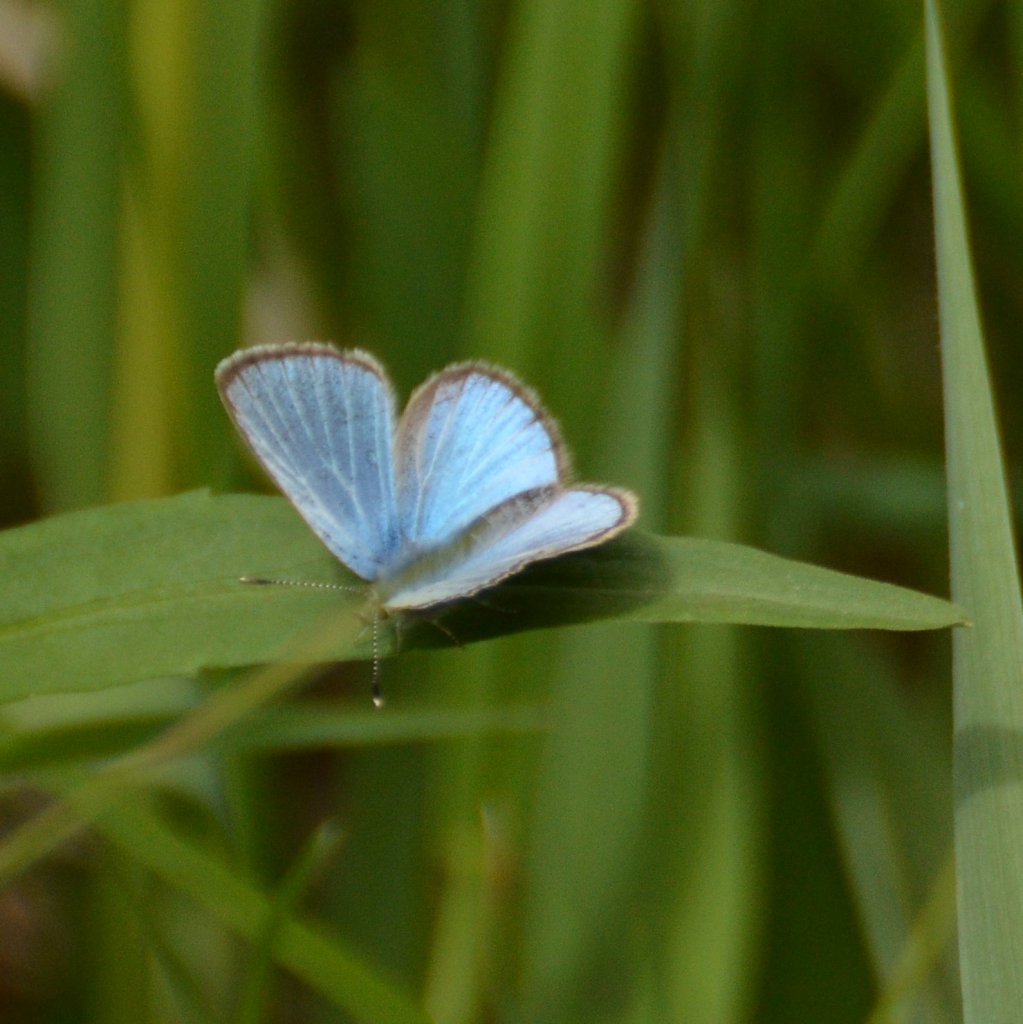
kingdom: Animalia
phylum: Arthropoda
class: Insecta
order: Lepidoptera
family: Lycaenidae
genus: Glaucopsyche
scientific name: Glaucopsyche lygdamus
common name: Silvery Blue
